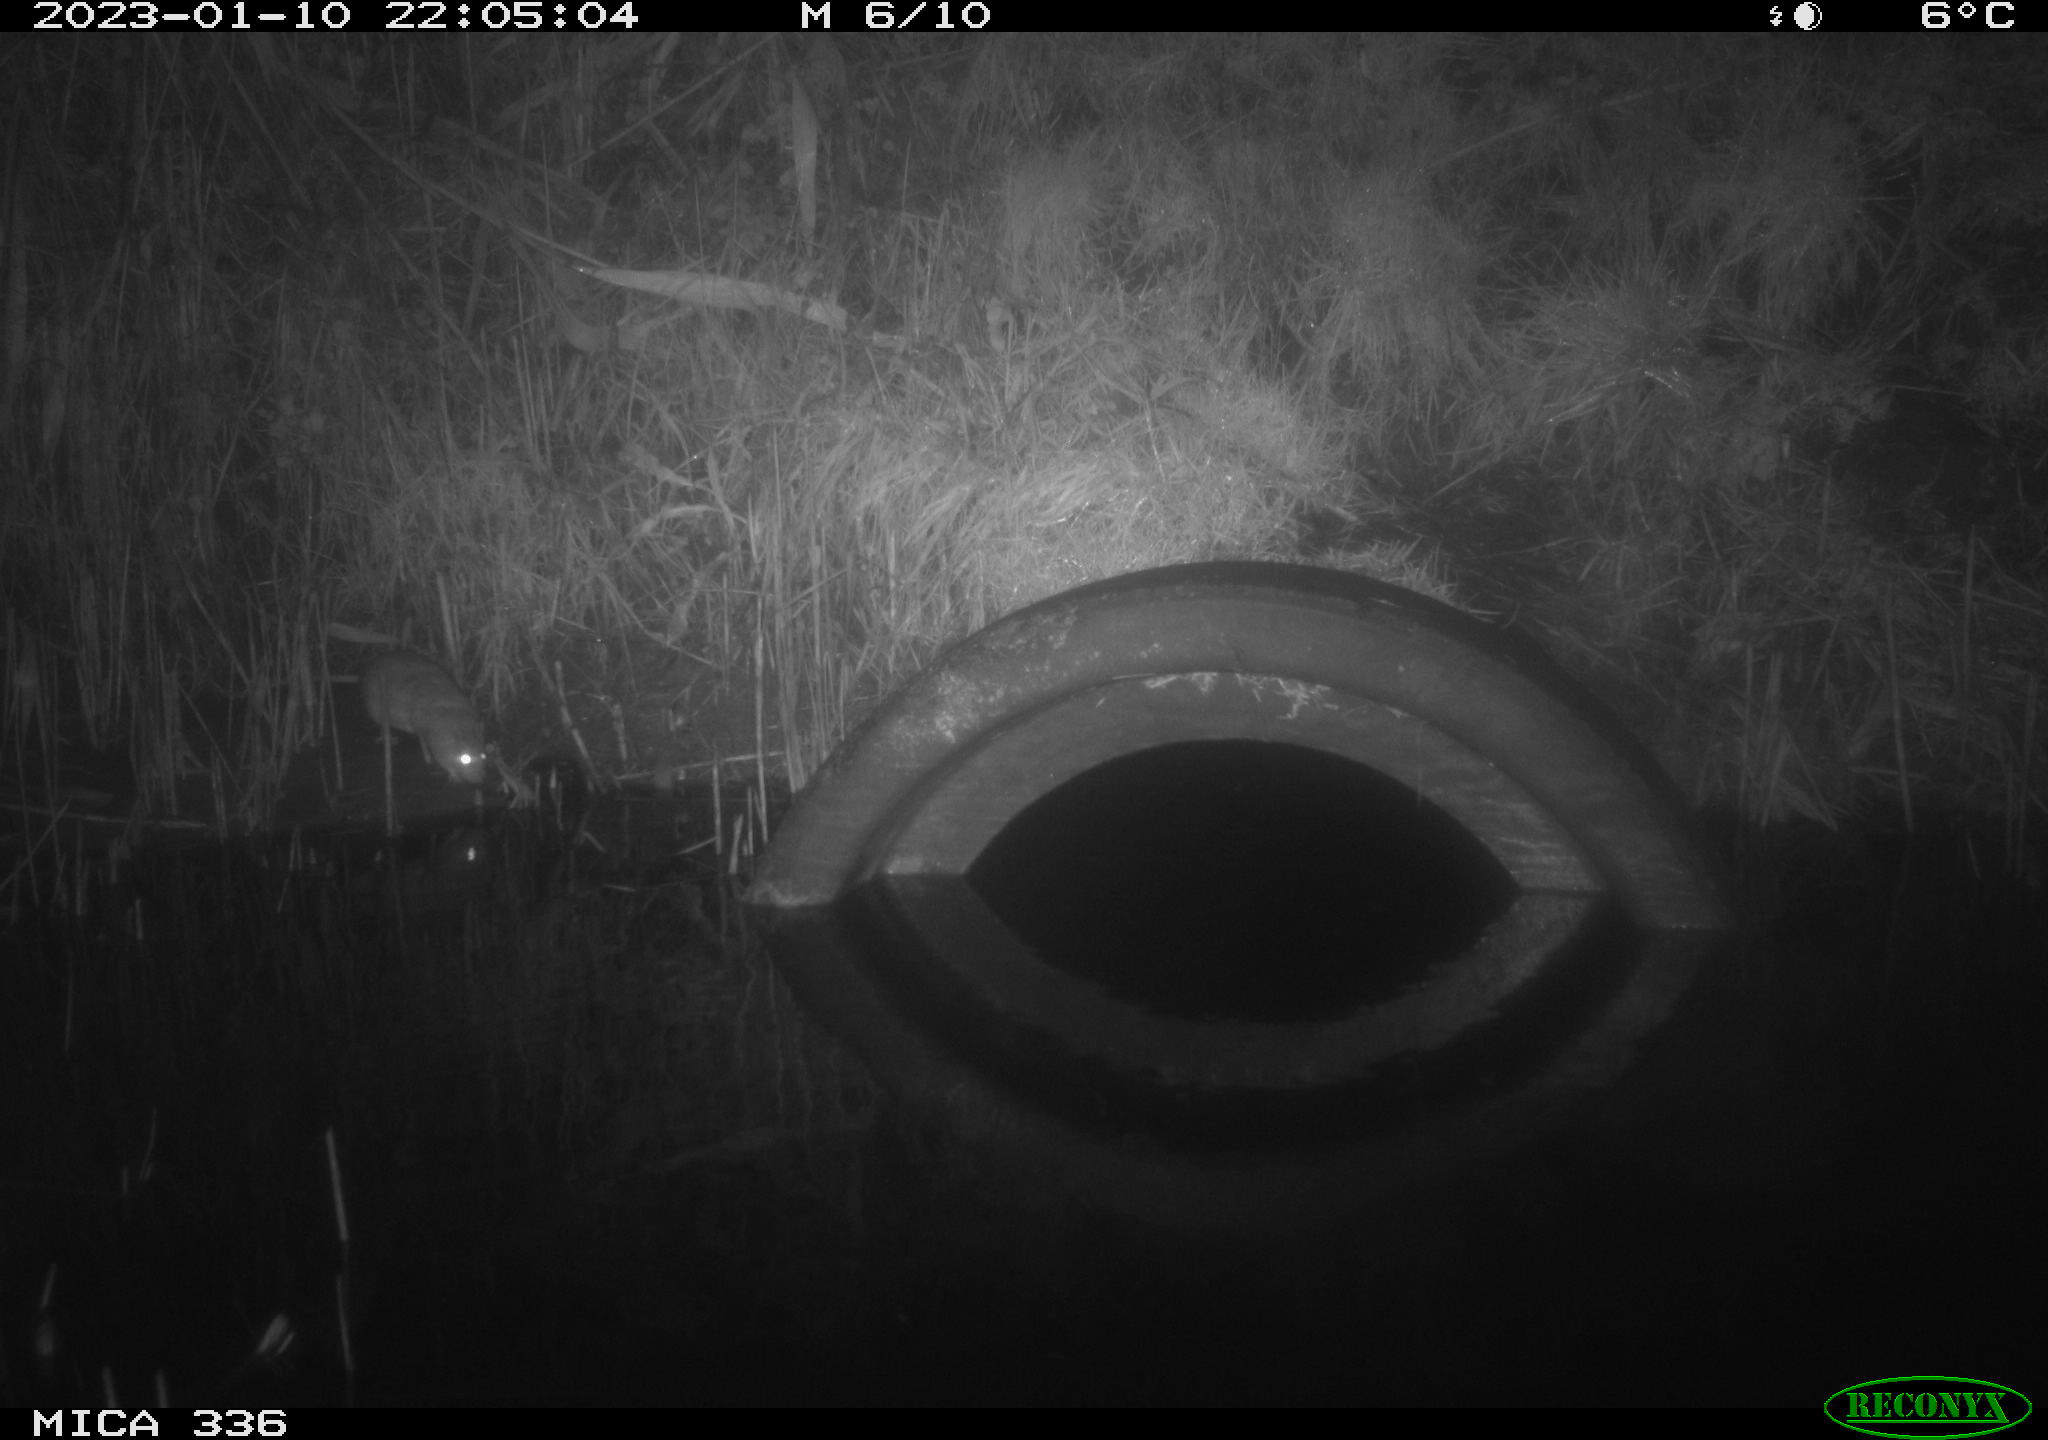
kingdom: Animalia
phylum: Chordata
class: Mammalia
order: Rodentia
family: Muridae
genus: Rattus
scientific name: Rattus norvegicus
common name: Brown rat
